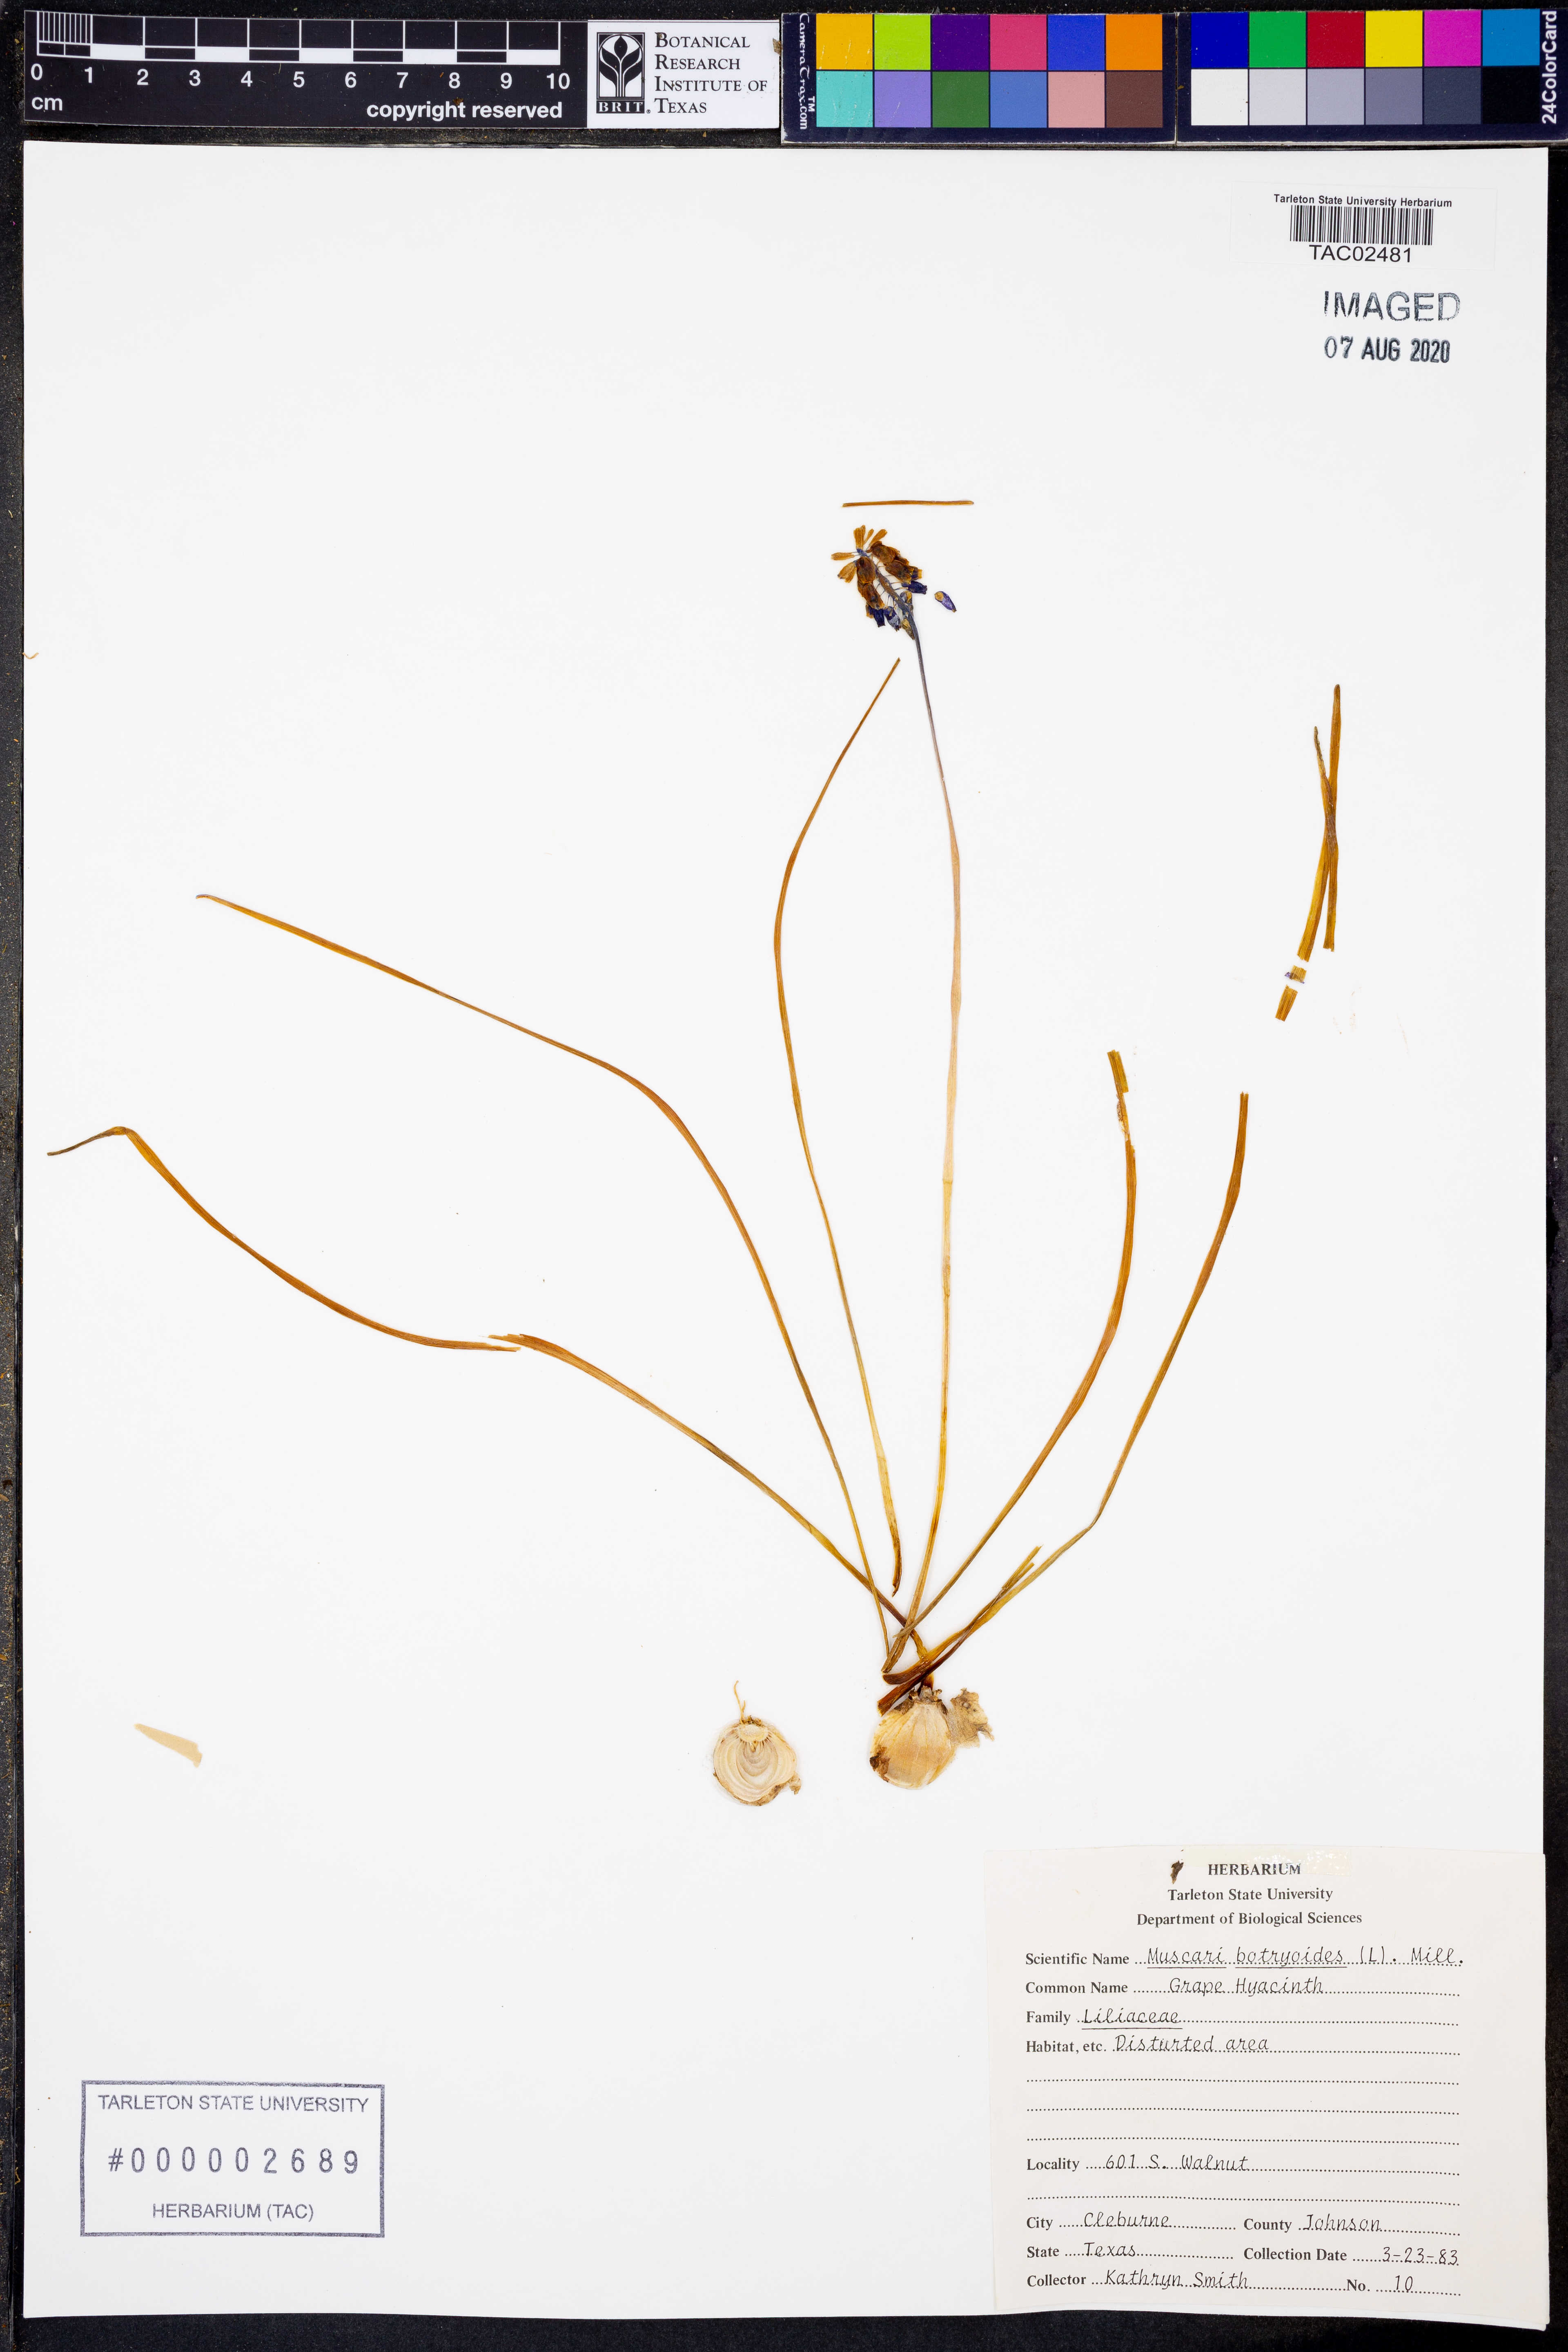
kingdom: Plantae
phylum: Tracheophyta
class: Liliopsida
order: Asparagales
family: Asparagaceae
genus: Muscari
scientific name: Muscari botryoides
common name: Compact grape-hyacinth
